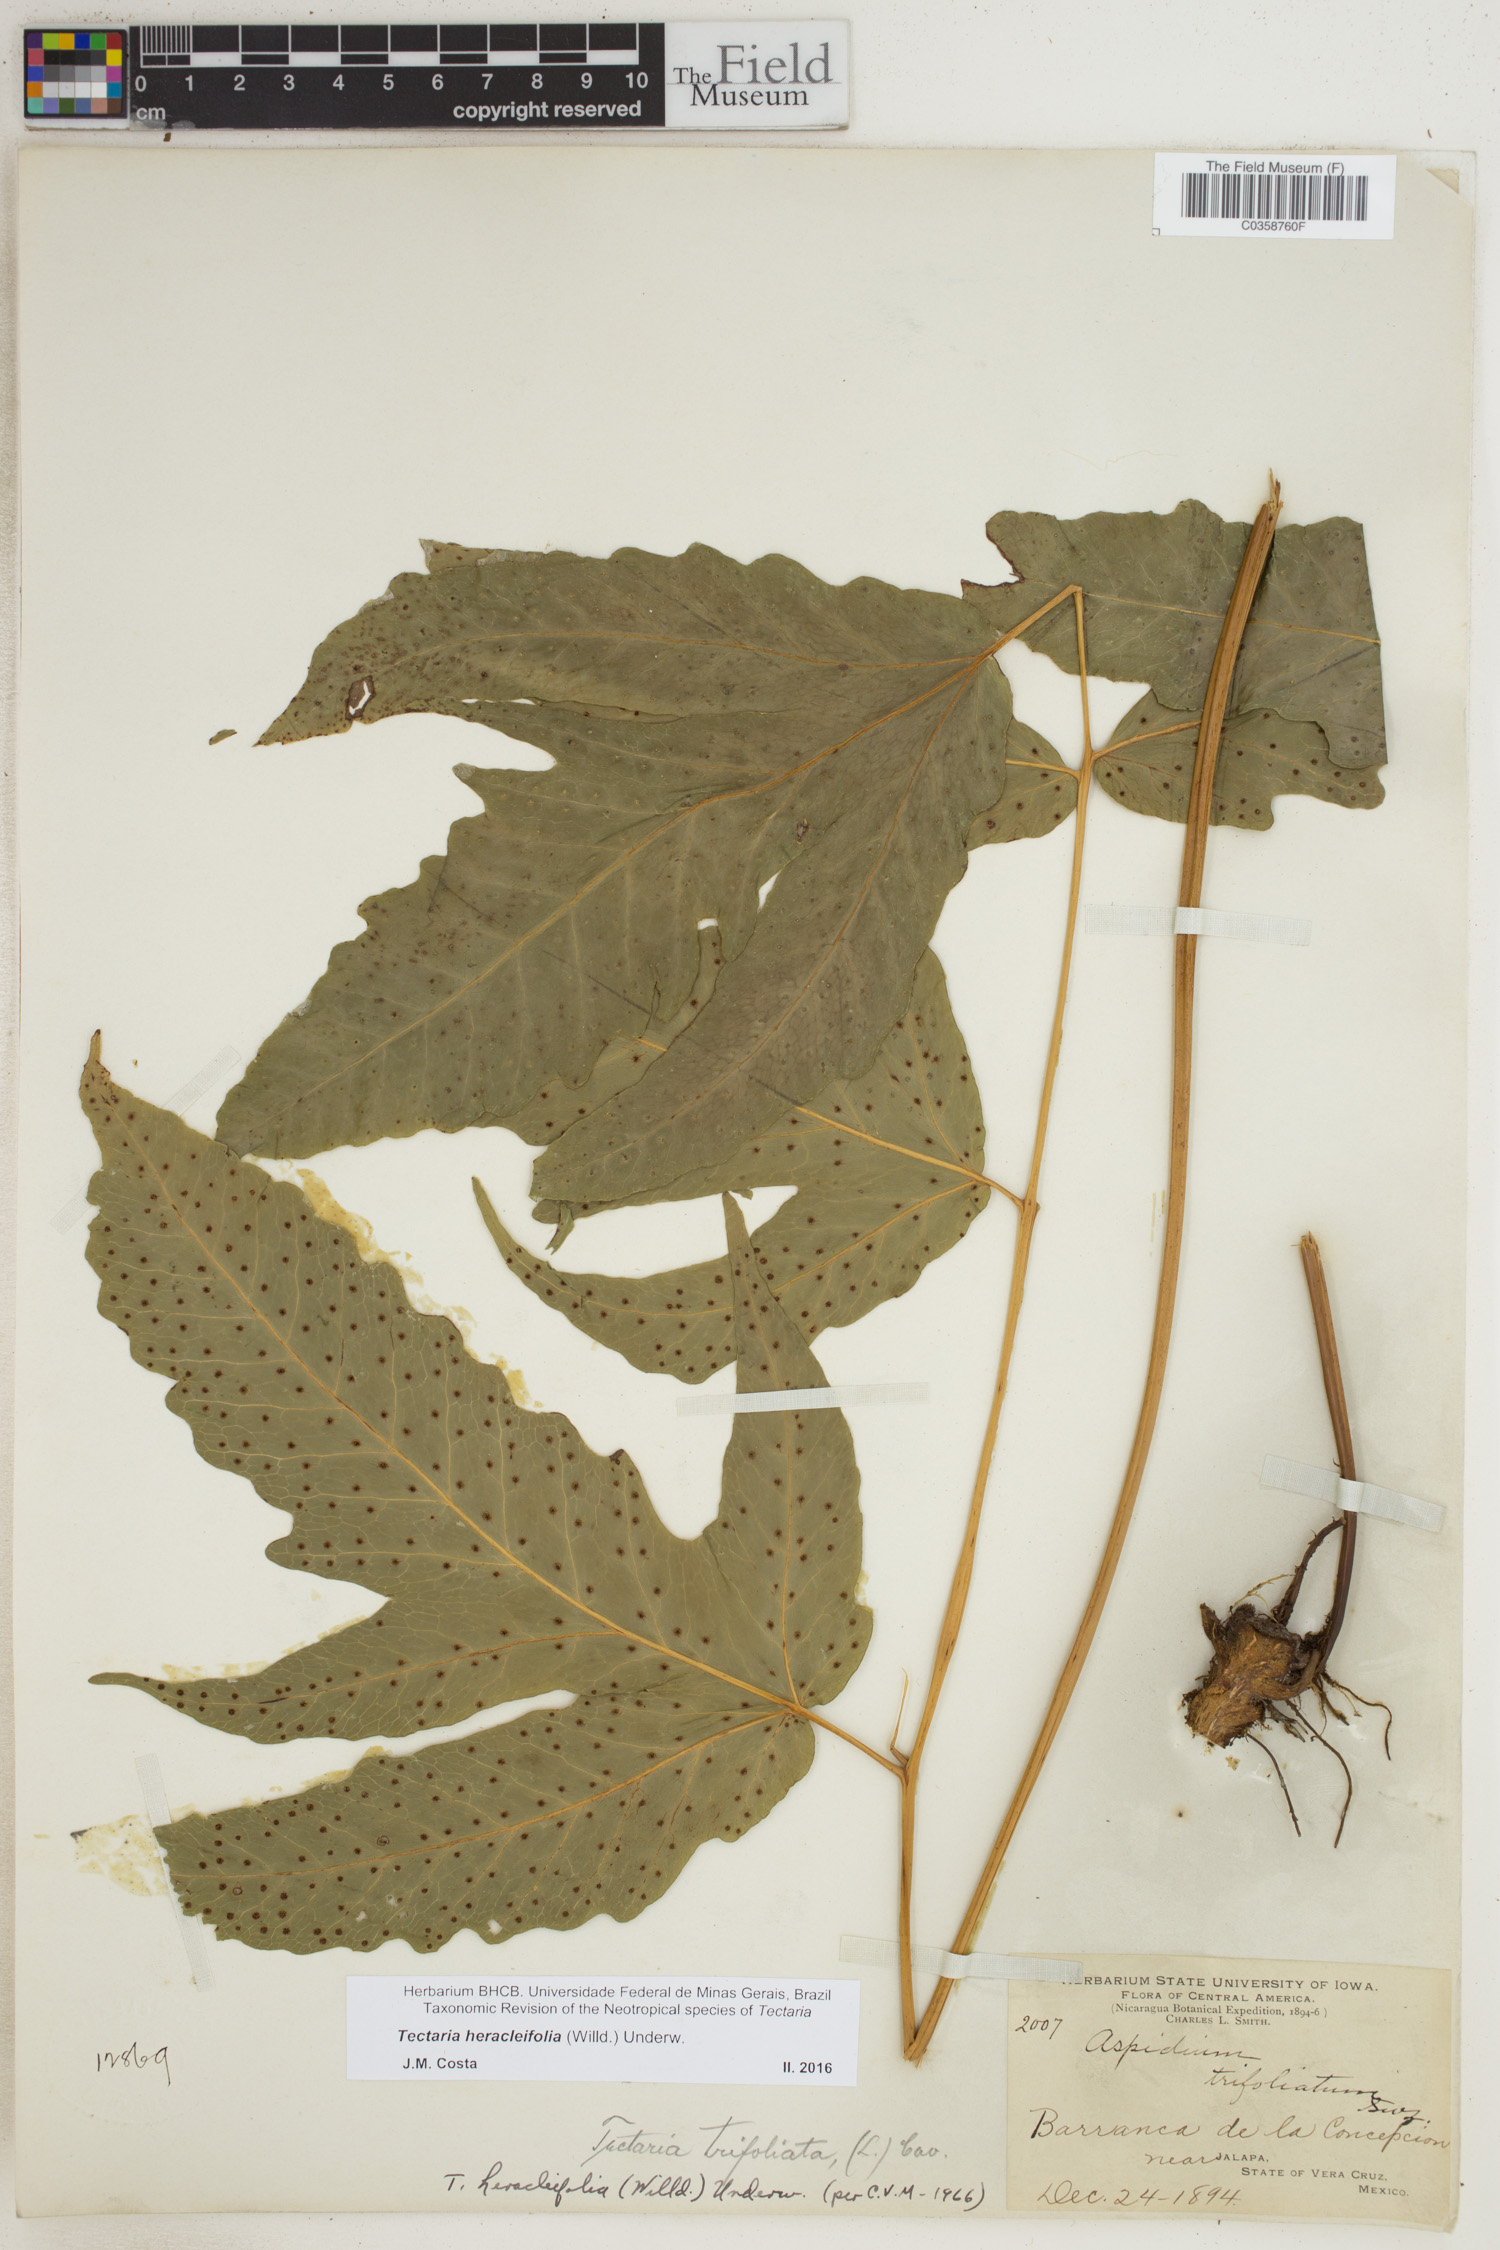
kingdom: Plantae
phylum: Tracheophyta
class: Polypodiopsida
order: Polypodiales
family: Tectariaceae
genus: Tectaria
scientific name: Tectaria heracleifolia
